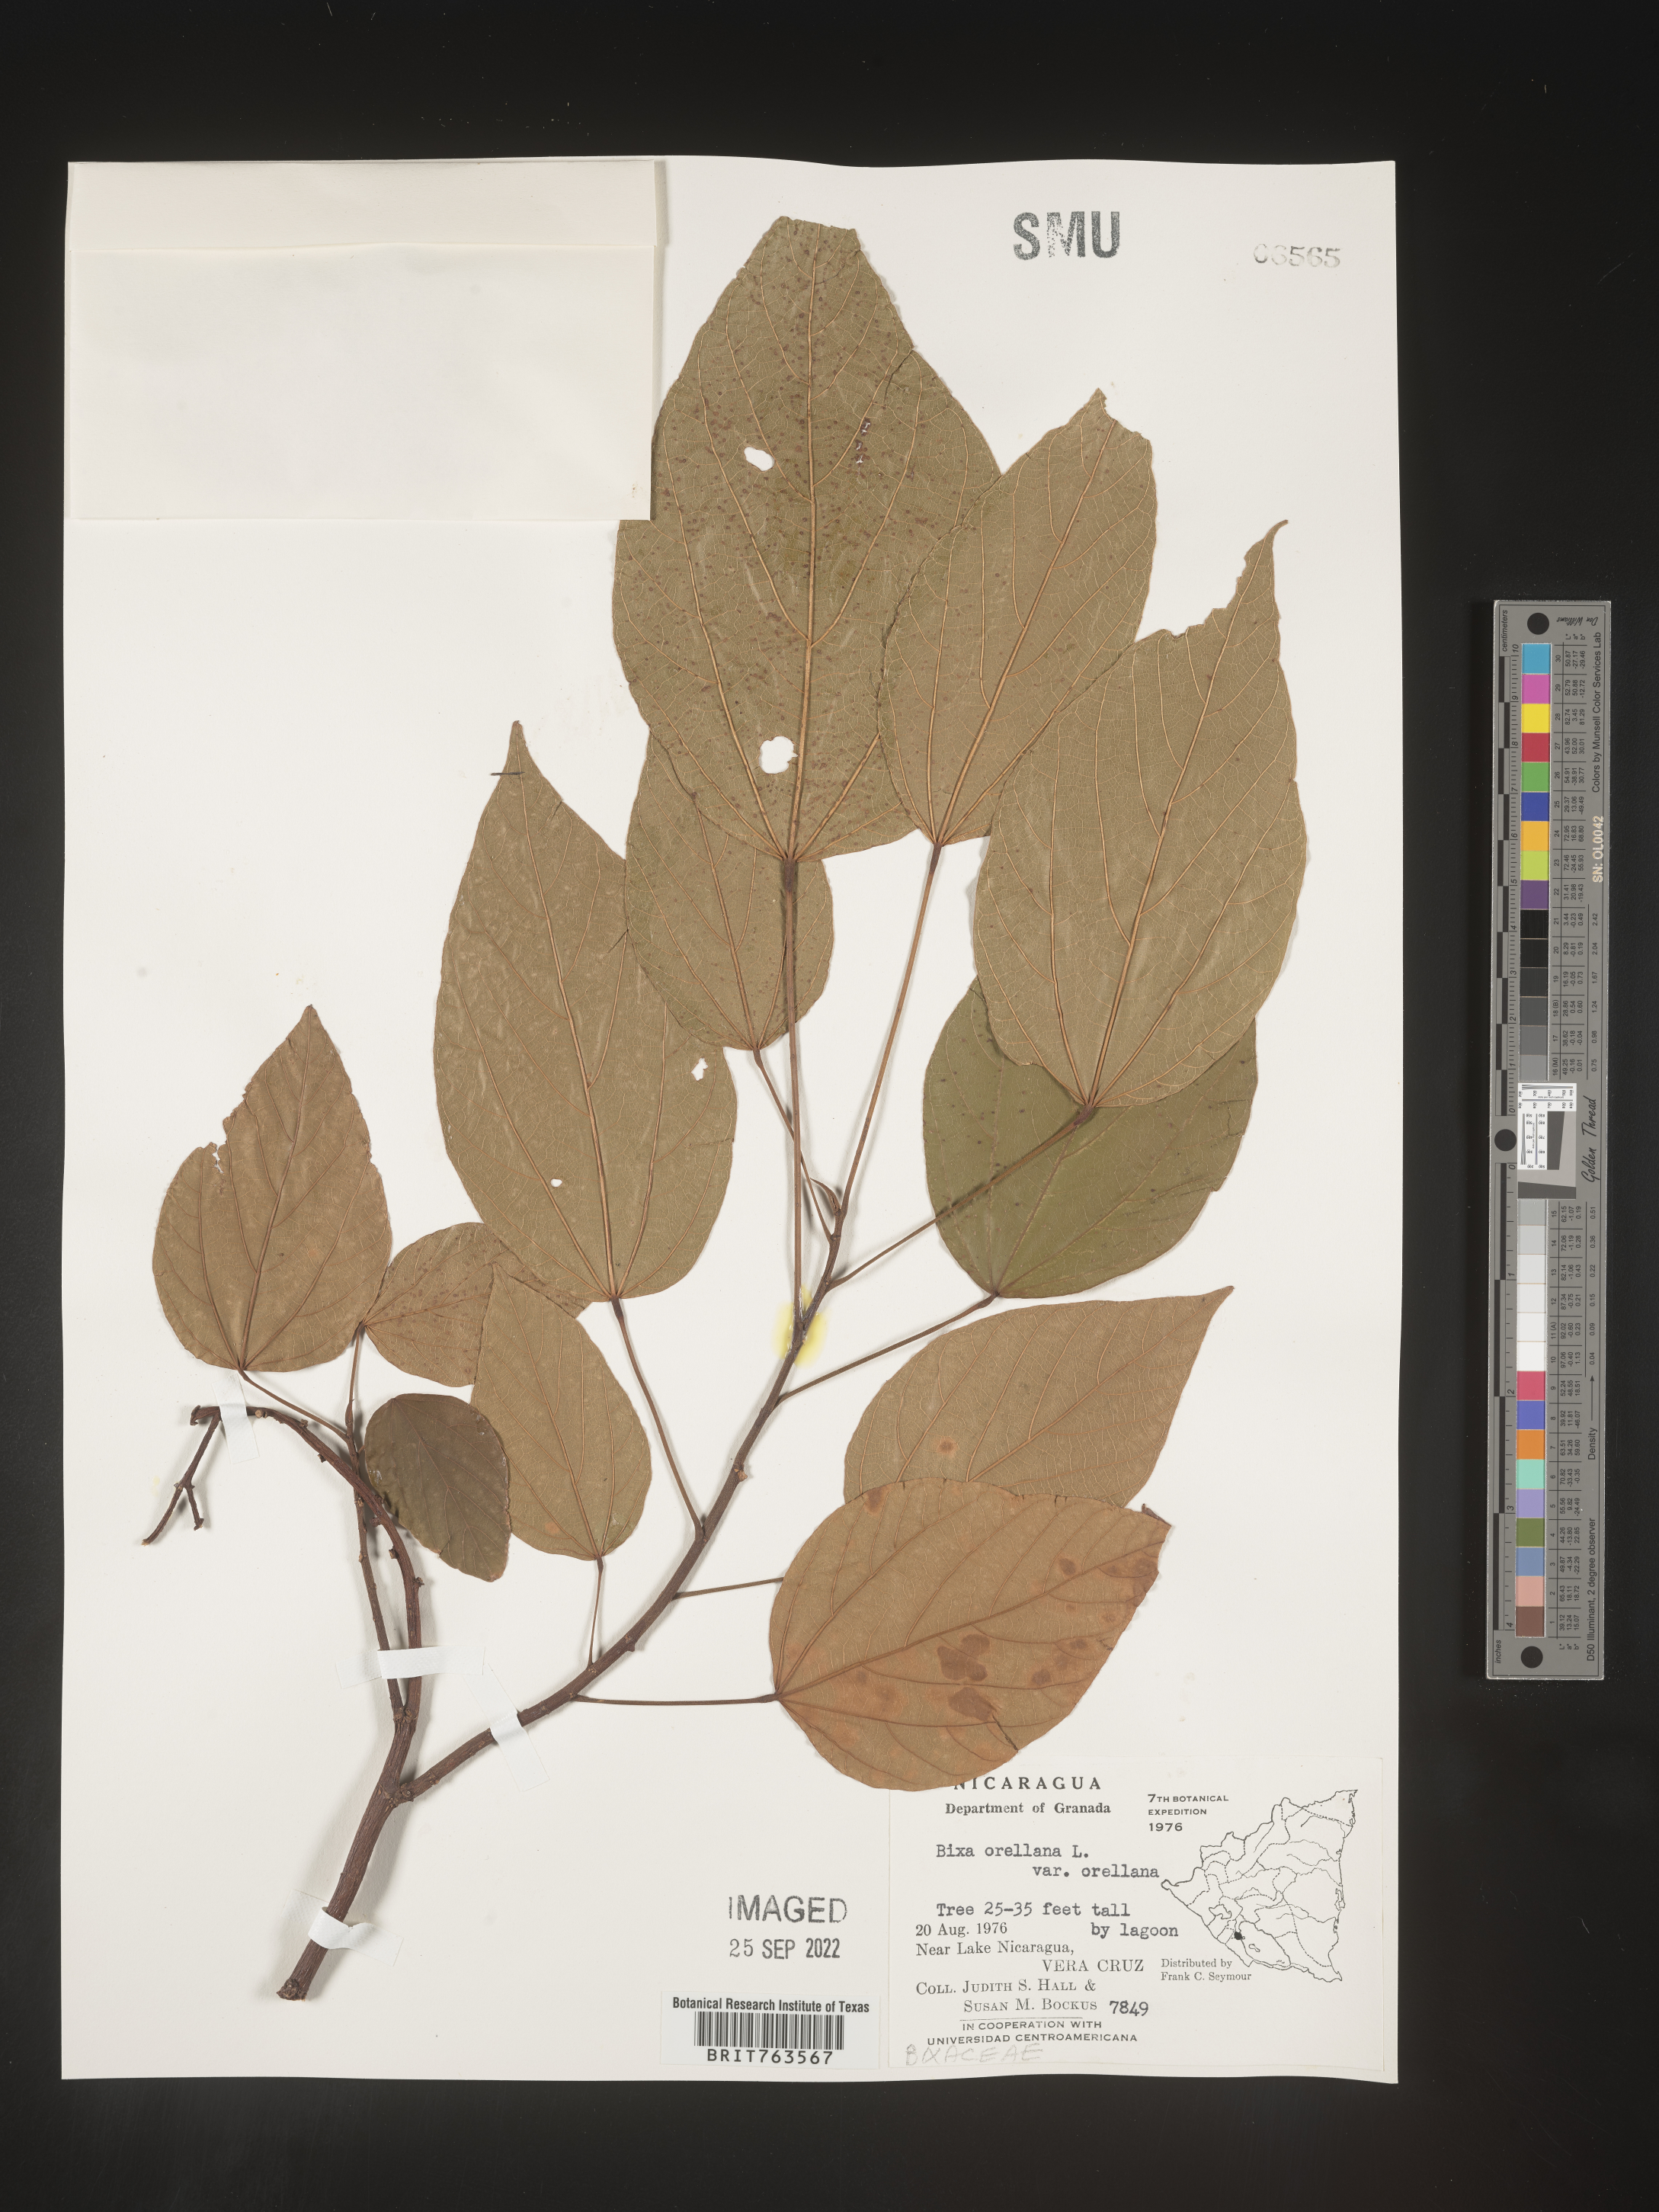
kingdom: Plantae
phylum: Tracheophyta
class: Magnoliopsida
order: Malvales
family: Bixaceae
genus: Bixa
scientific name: Bixa
